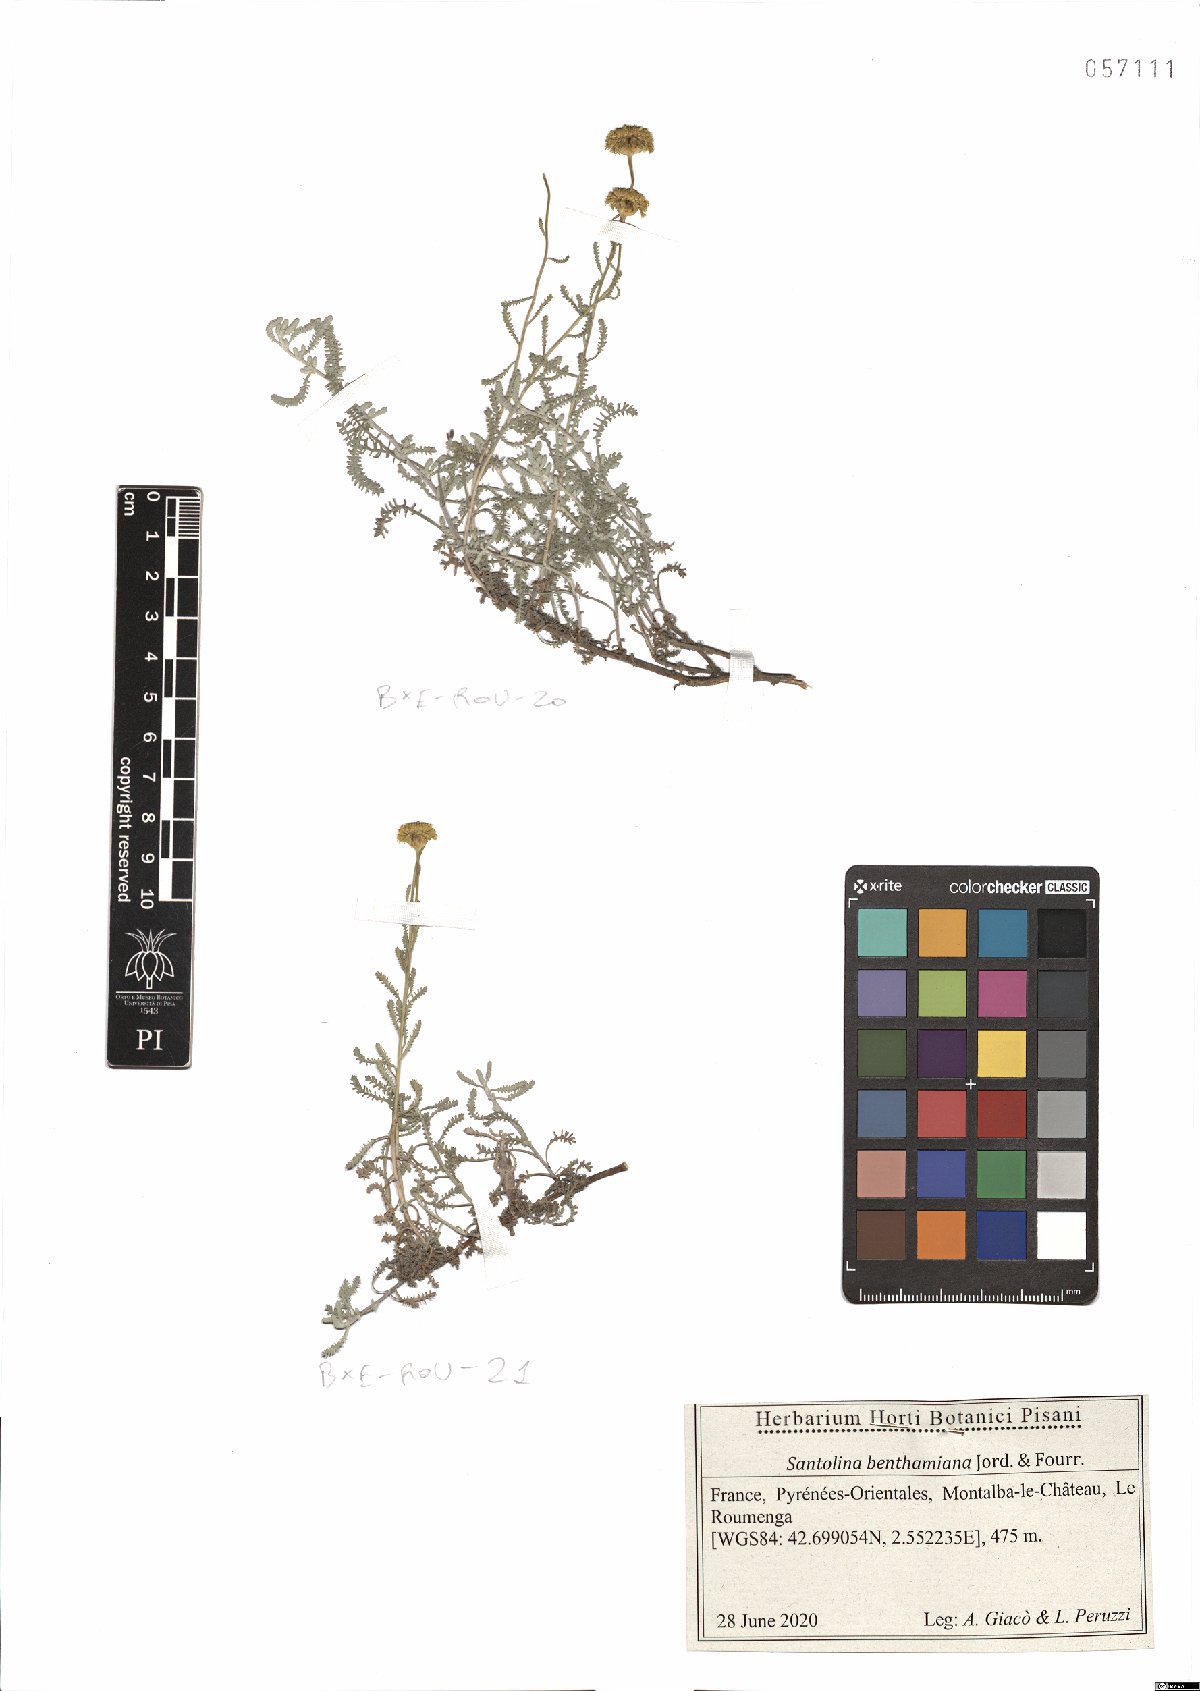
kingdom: Plantae
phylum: Tracheophyta
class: Magnoliopsida
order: Asterales
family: Asteraceae
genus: Santolina
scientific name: Santolina benthamiana
